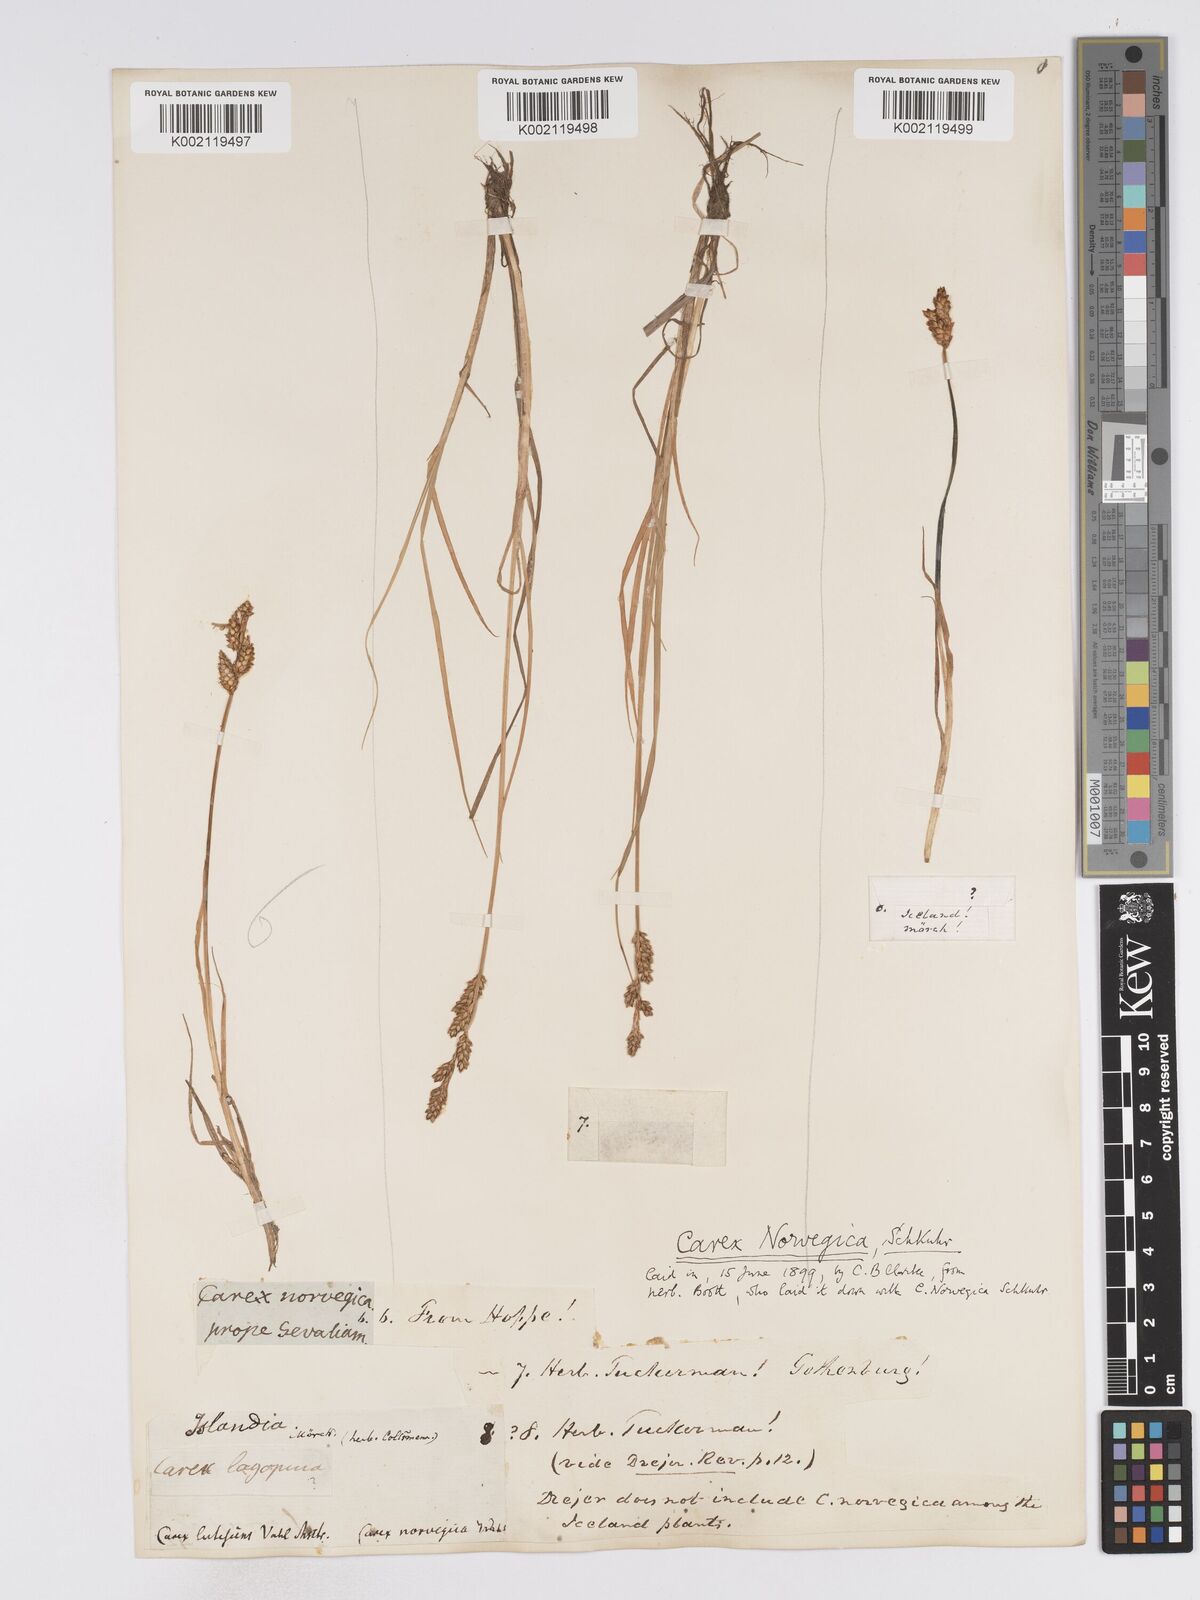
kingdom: Plantae
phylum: Tracheophyta
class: Liliopsida
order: Poales
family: Cyperaceae
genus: Carex
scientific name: Carex mackenziei
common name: Mackenzie's sedge
